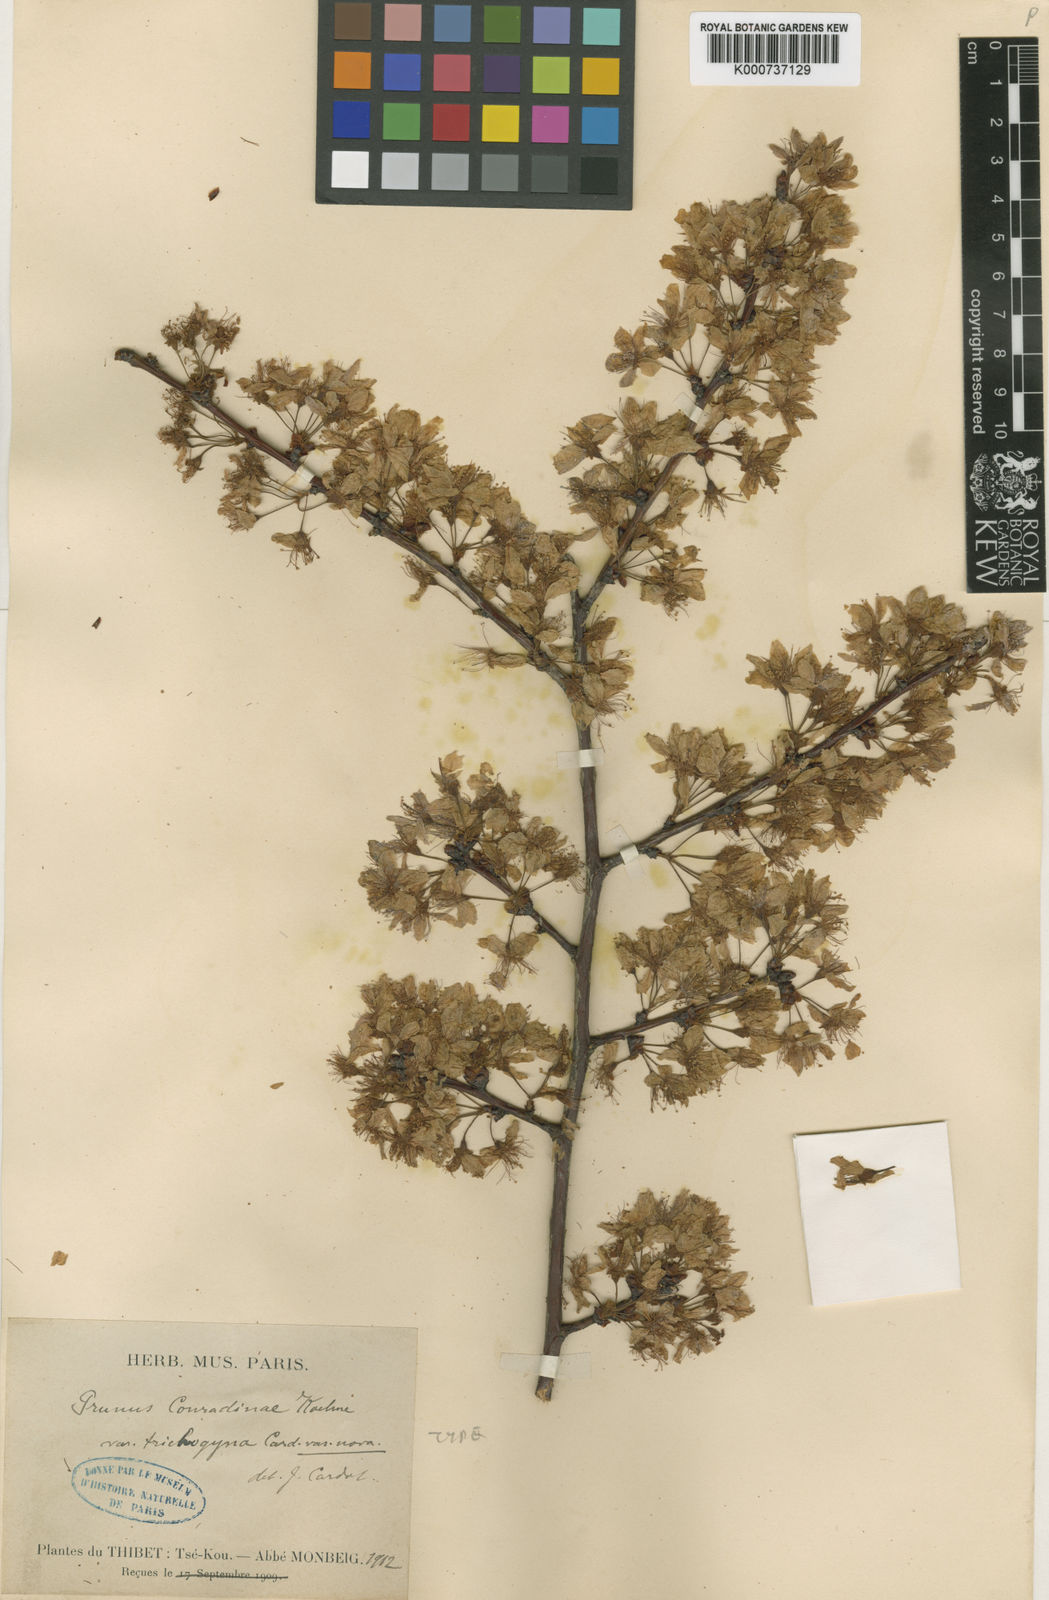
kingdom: Plantae
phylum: Tracheophyta
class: Magnoliopsida
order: Rosales
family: Rosaceae
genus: Prunus
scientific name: Prunus conradinae
